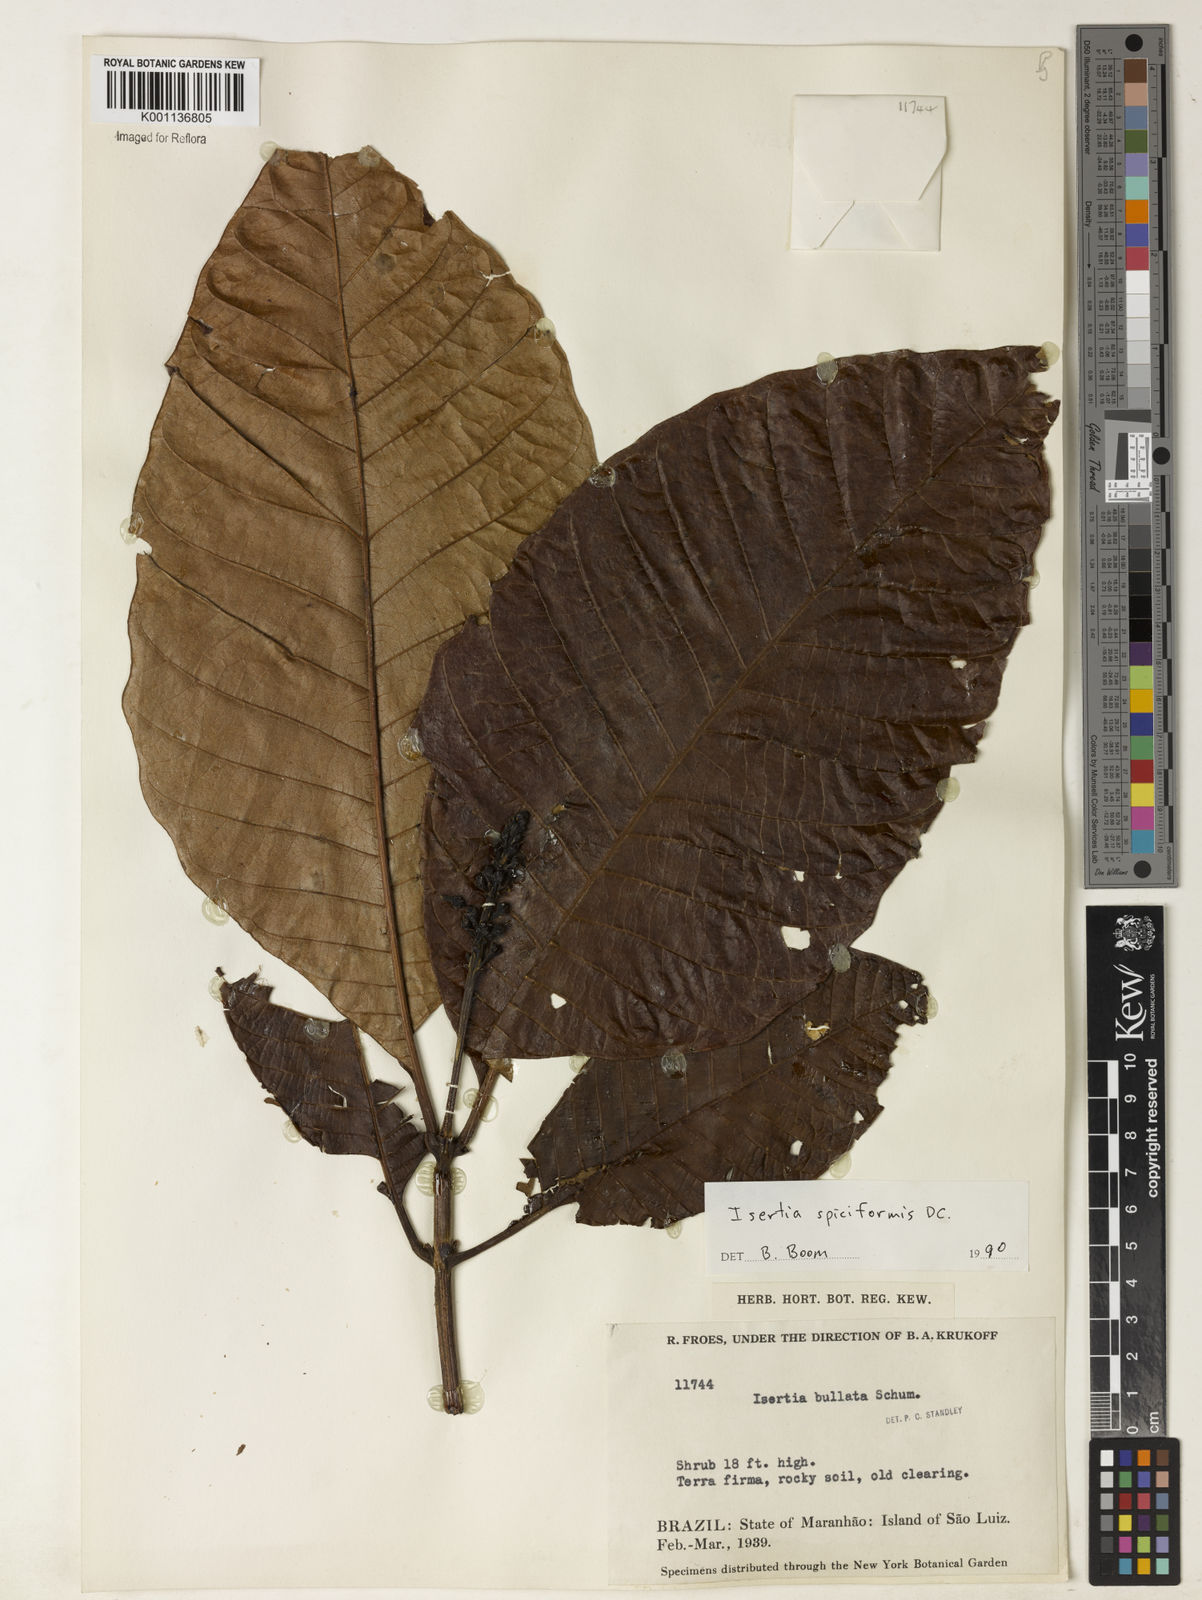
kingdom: Plantae
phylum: Tracheophyta
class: Magnoliopsida
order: Gentianales
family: Rubiaceae
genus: Isertia
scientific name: Isertia spiciformis
